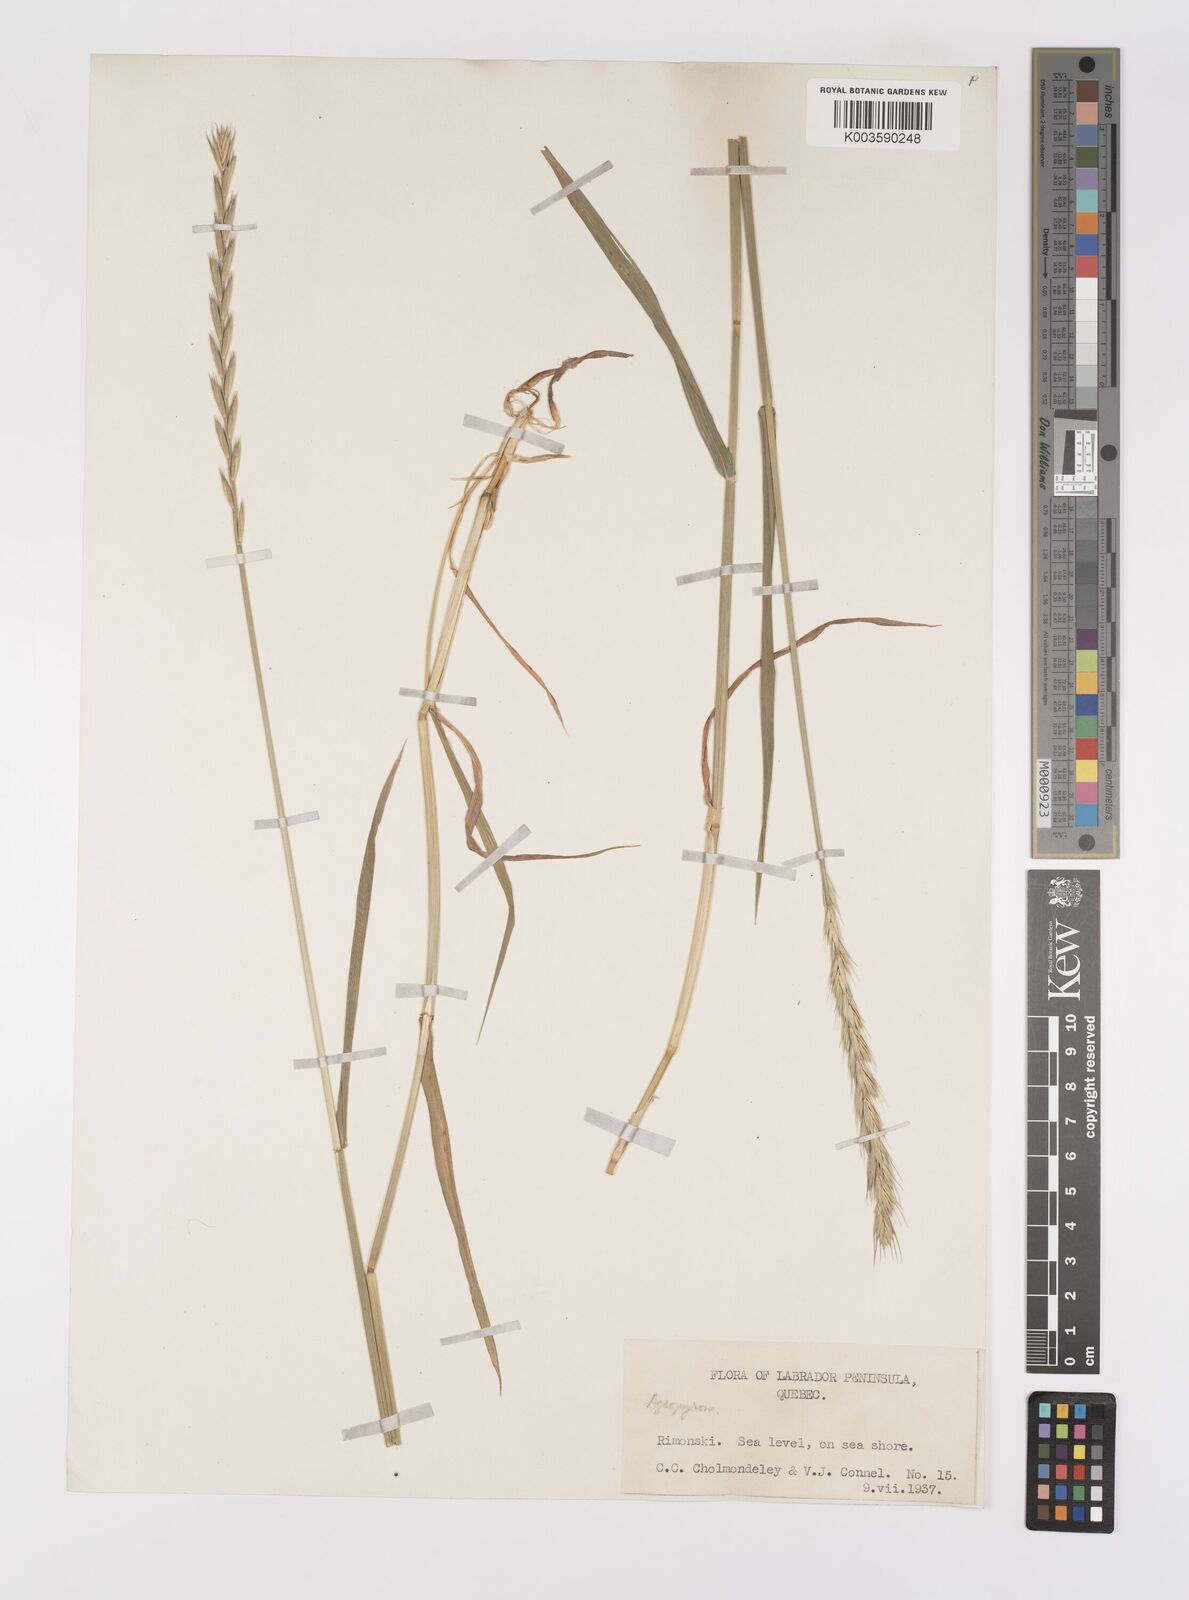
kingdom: Plantae
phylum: Tracheophyta
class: Liliopsida
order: Poales
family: Poaceae
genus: Elymus
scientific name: Elymus
